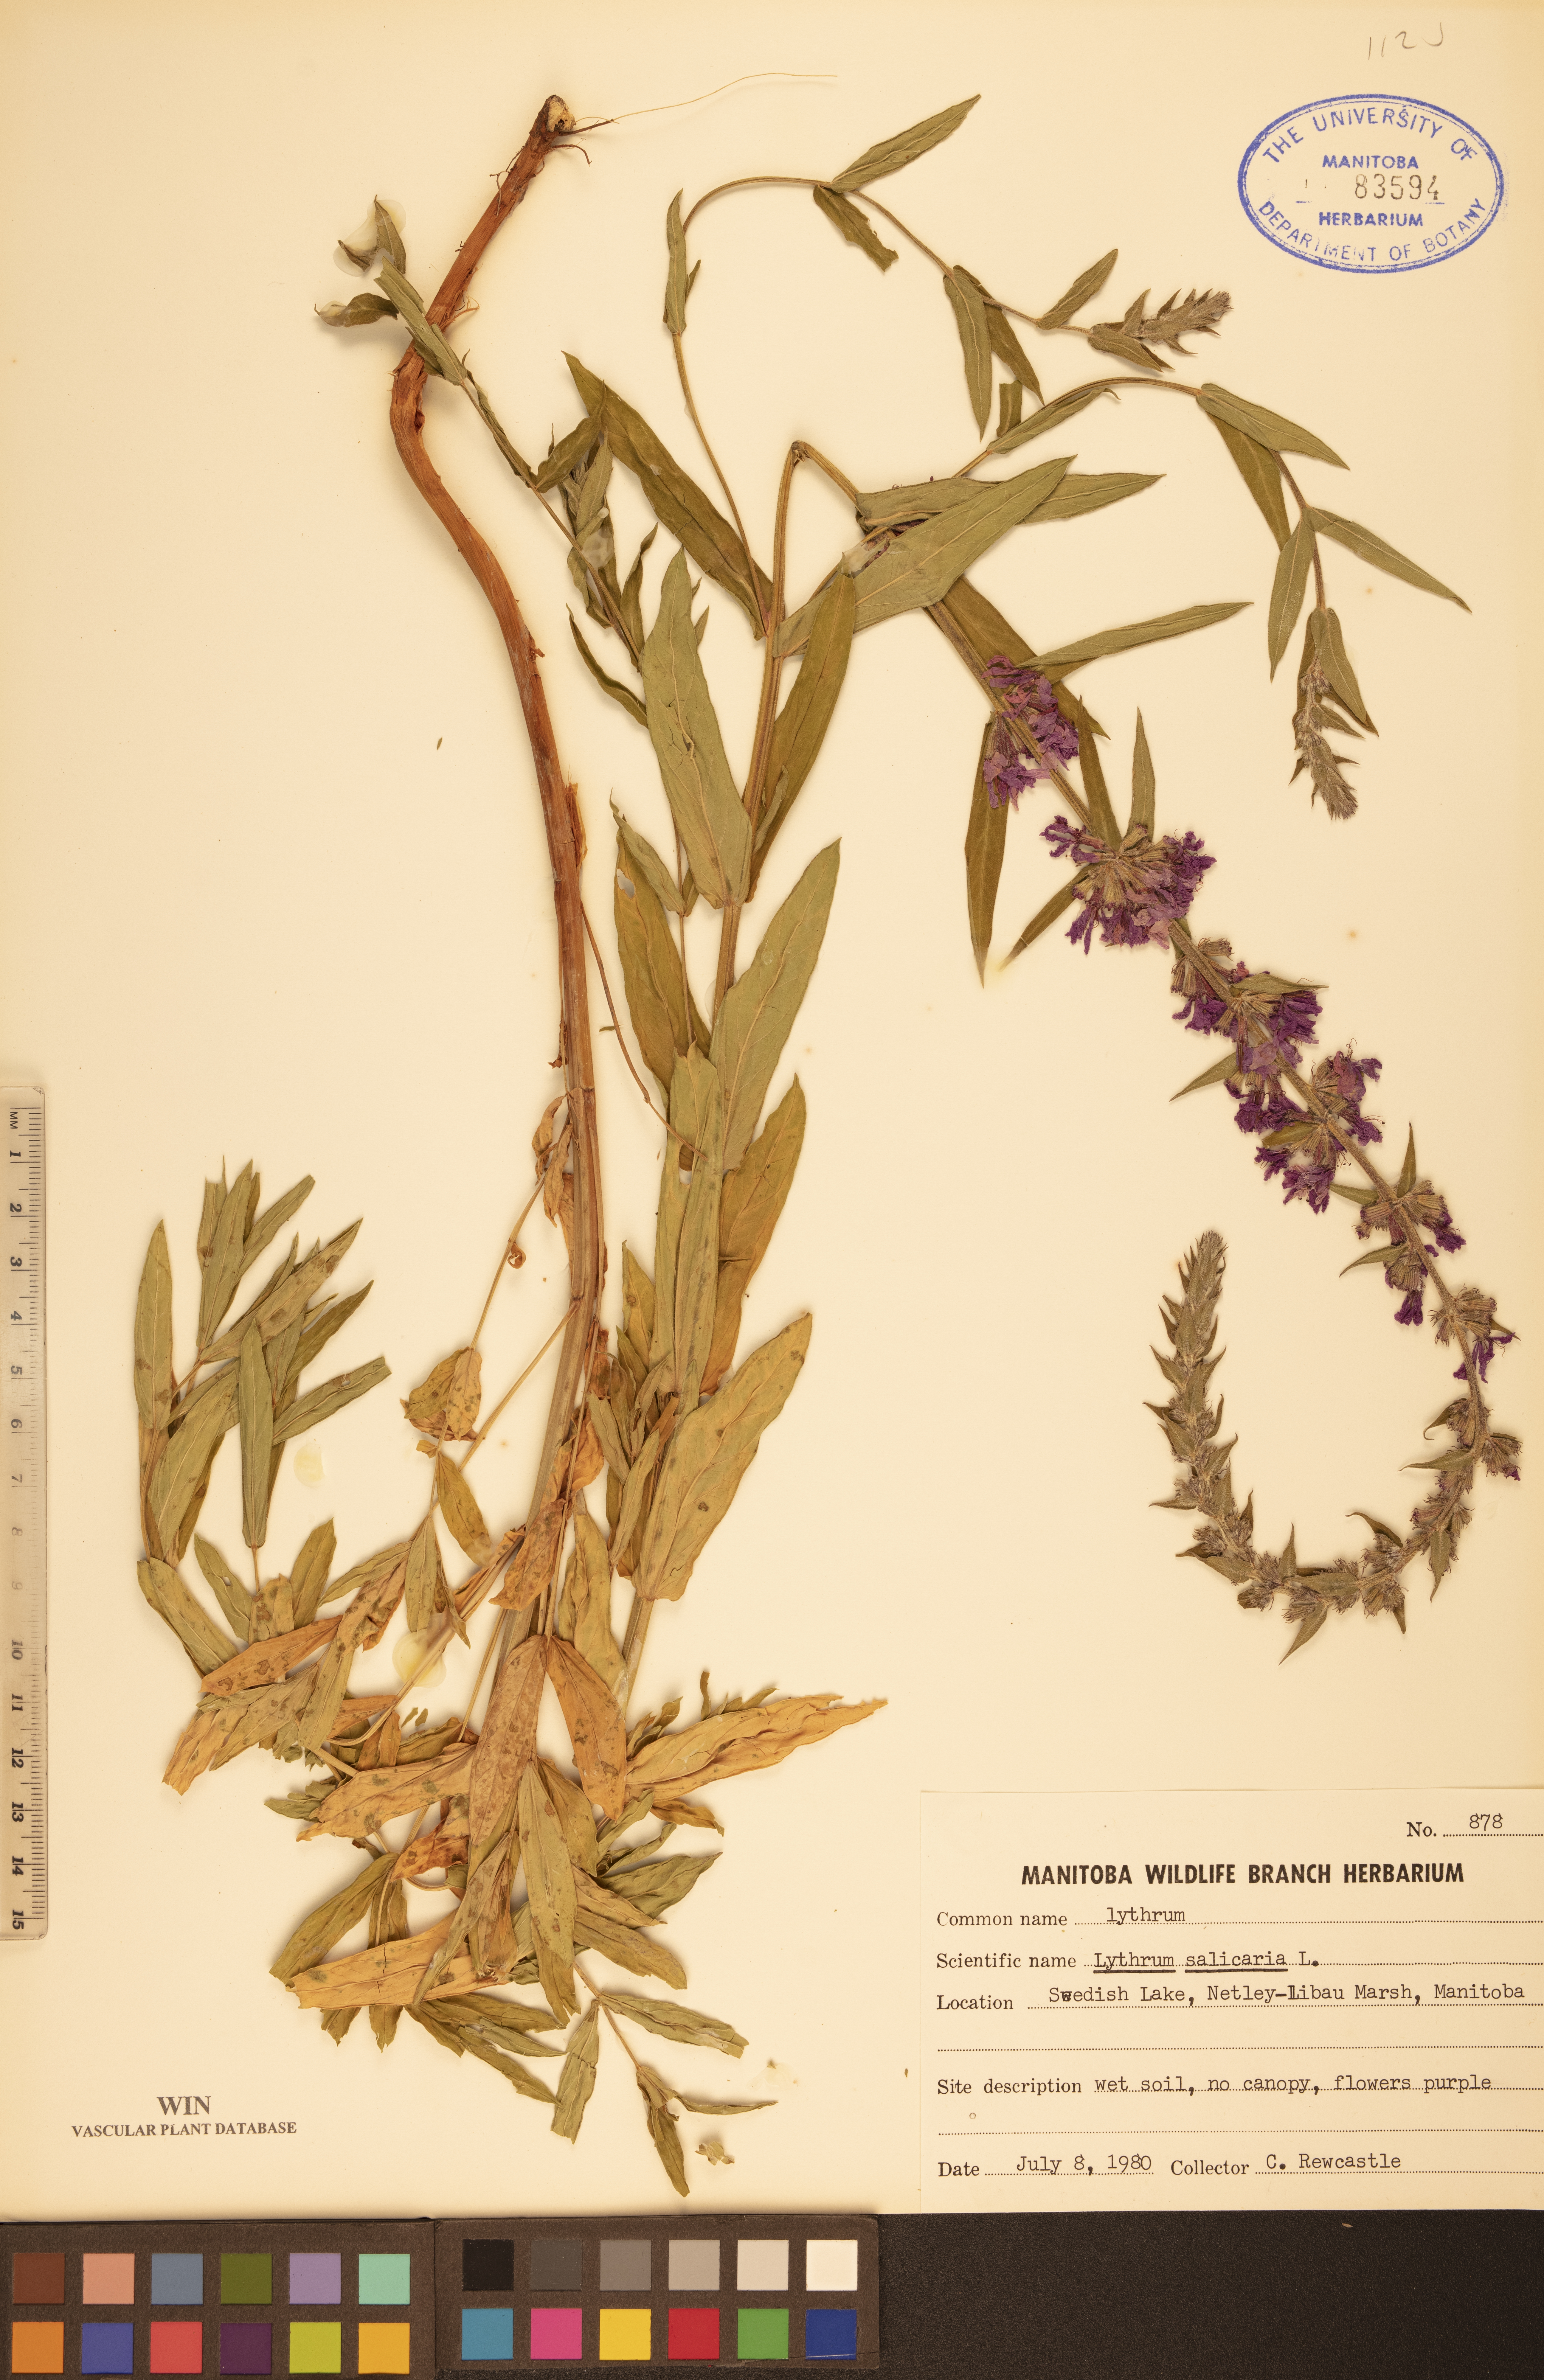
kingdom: Plantae
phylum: Tracheophyta
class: Magnoliopsida
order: Myrtales
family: Lythraceae
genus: Lythrum
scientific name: Lythrum salicaria
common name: Purple loosestrife
